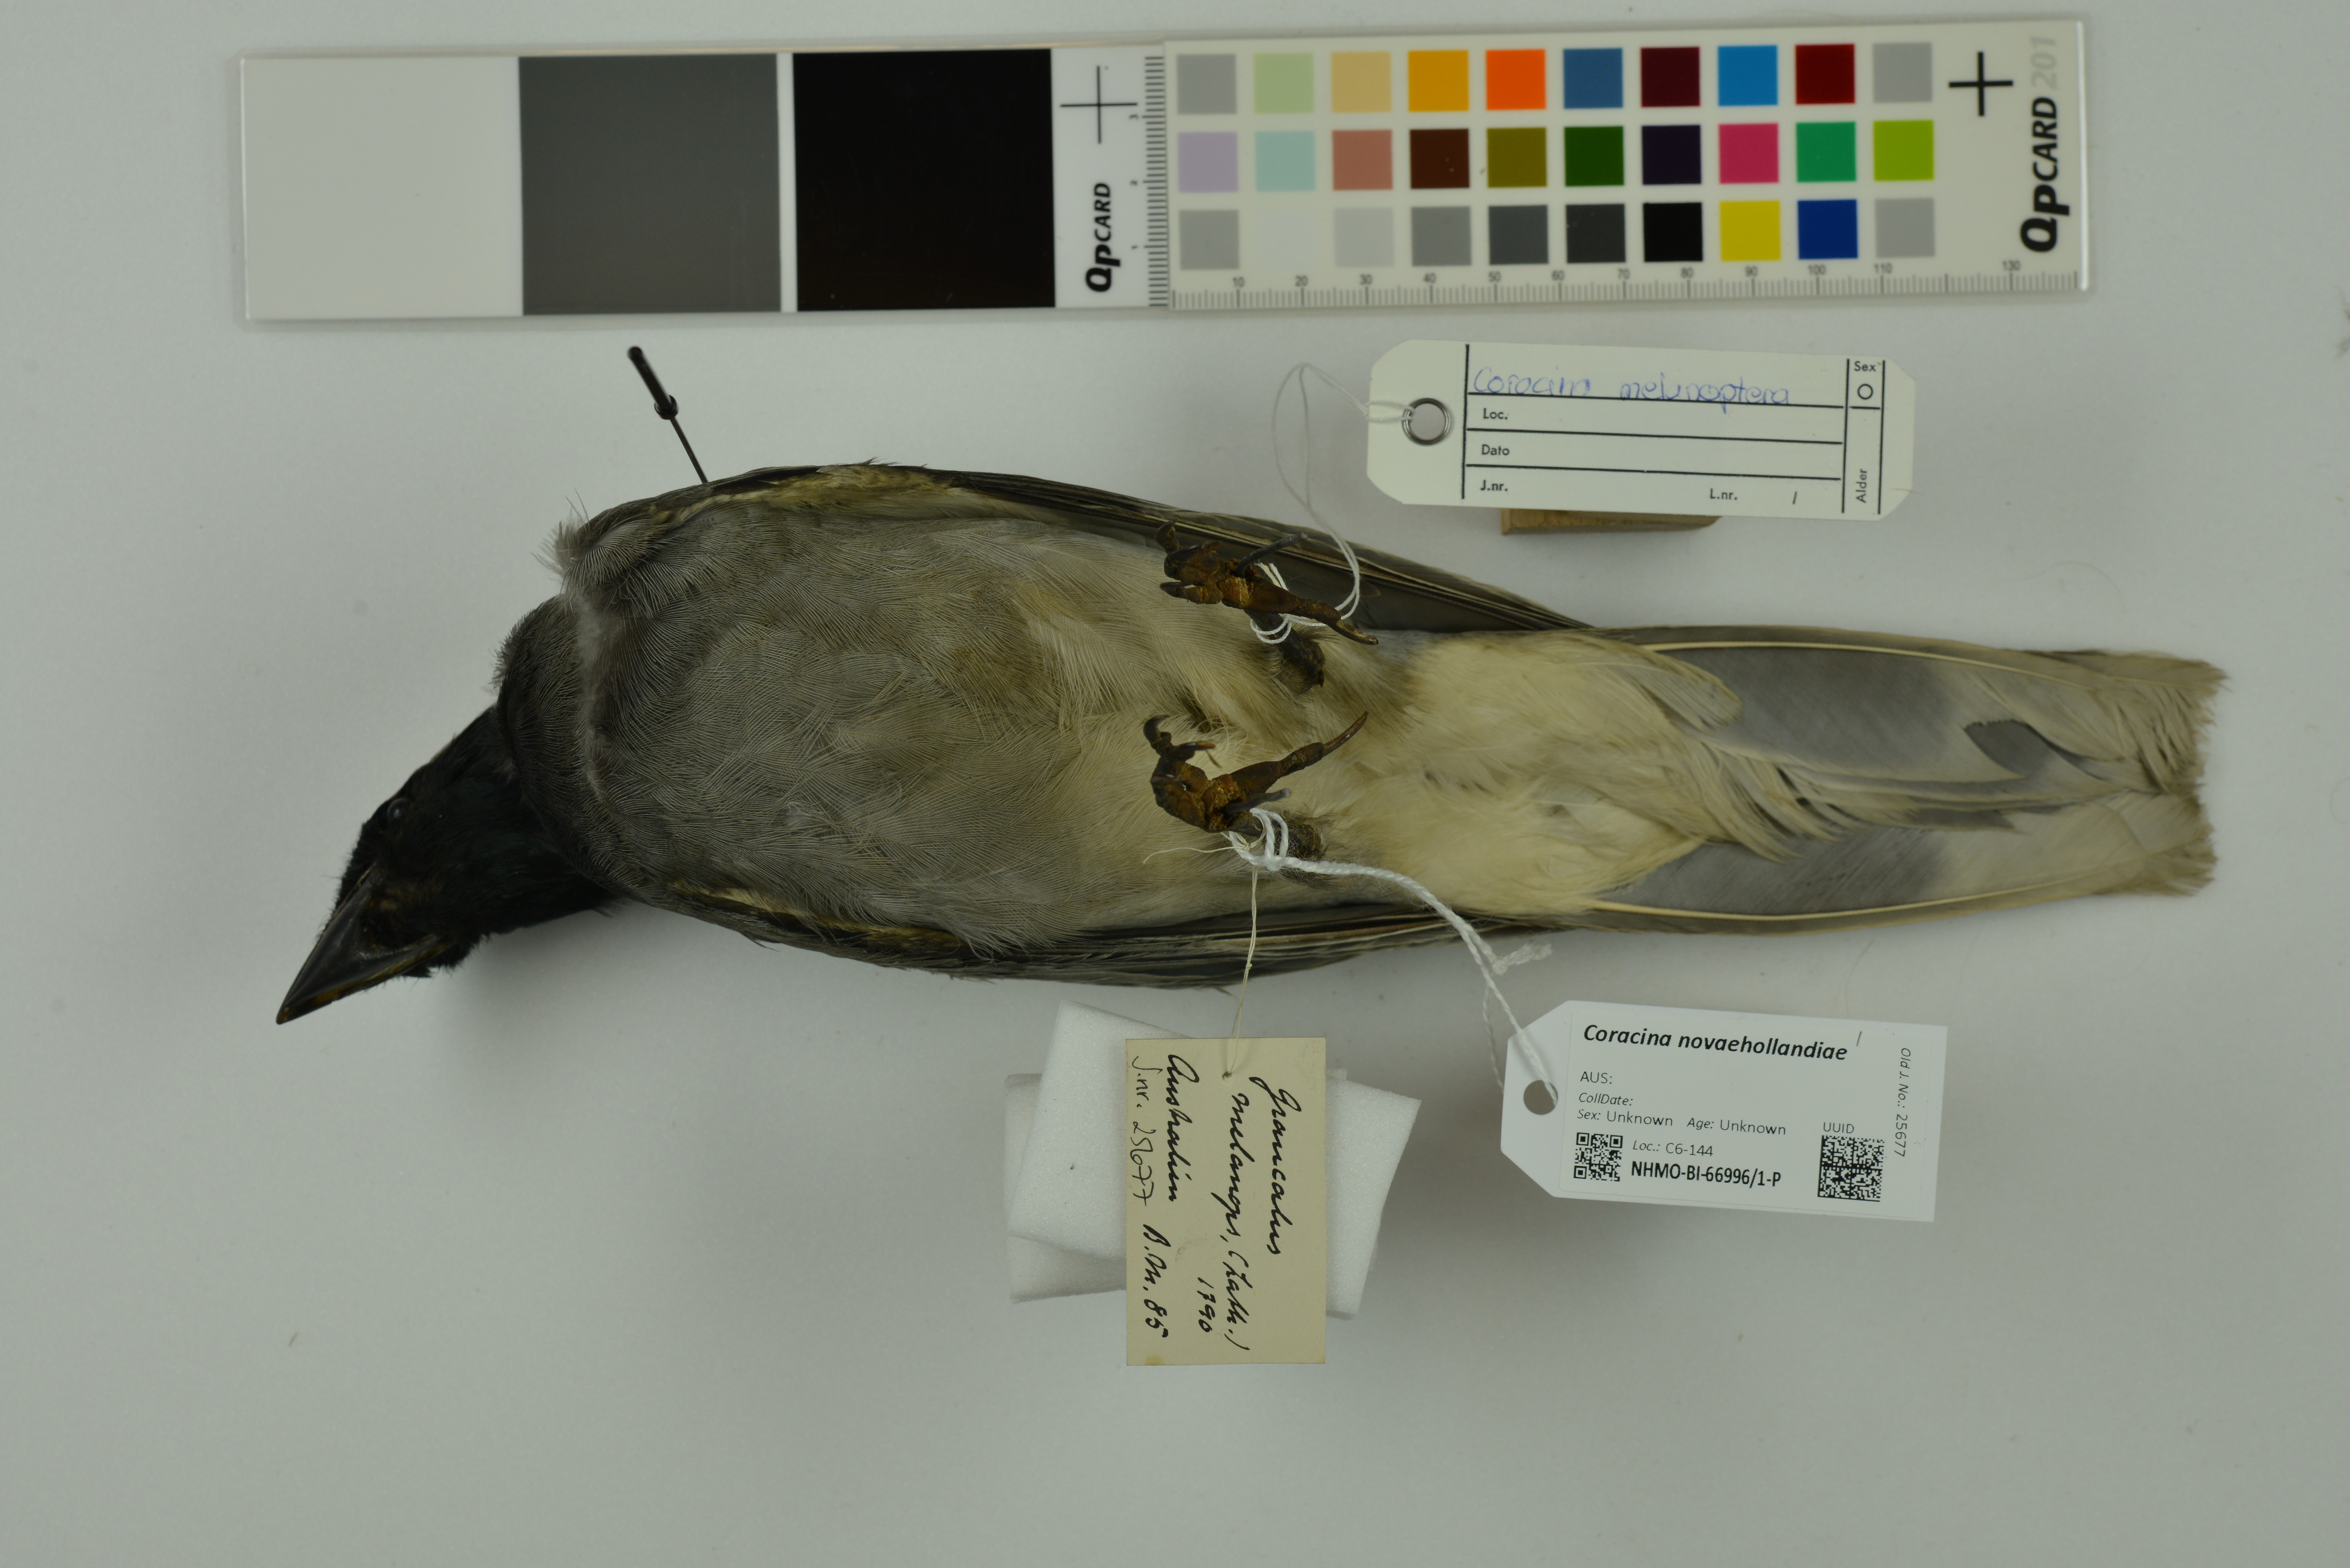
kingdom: Animalia
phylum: Chordata
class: Aves
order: Passeriformes
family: Campephagidae
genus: Coracina
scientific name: Coracina novaehollandiae
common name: Black-faced cuckooshrike
